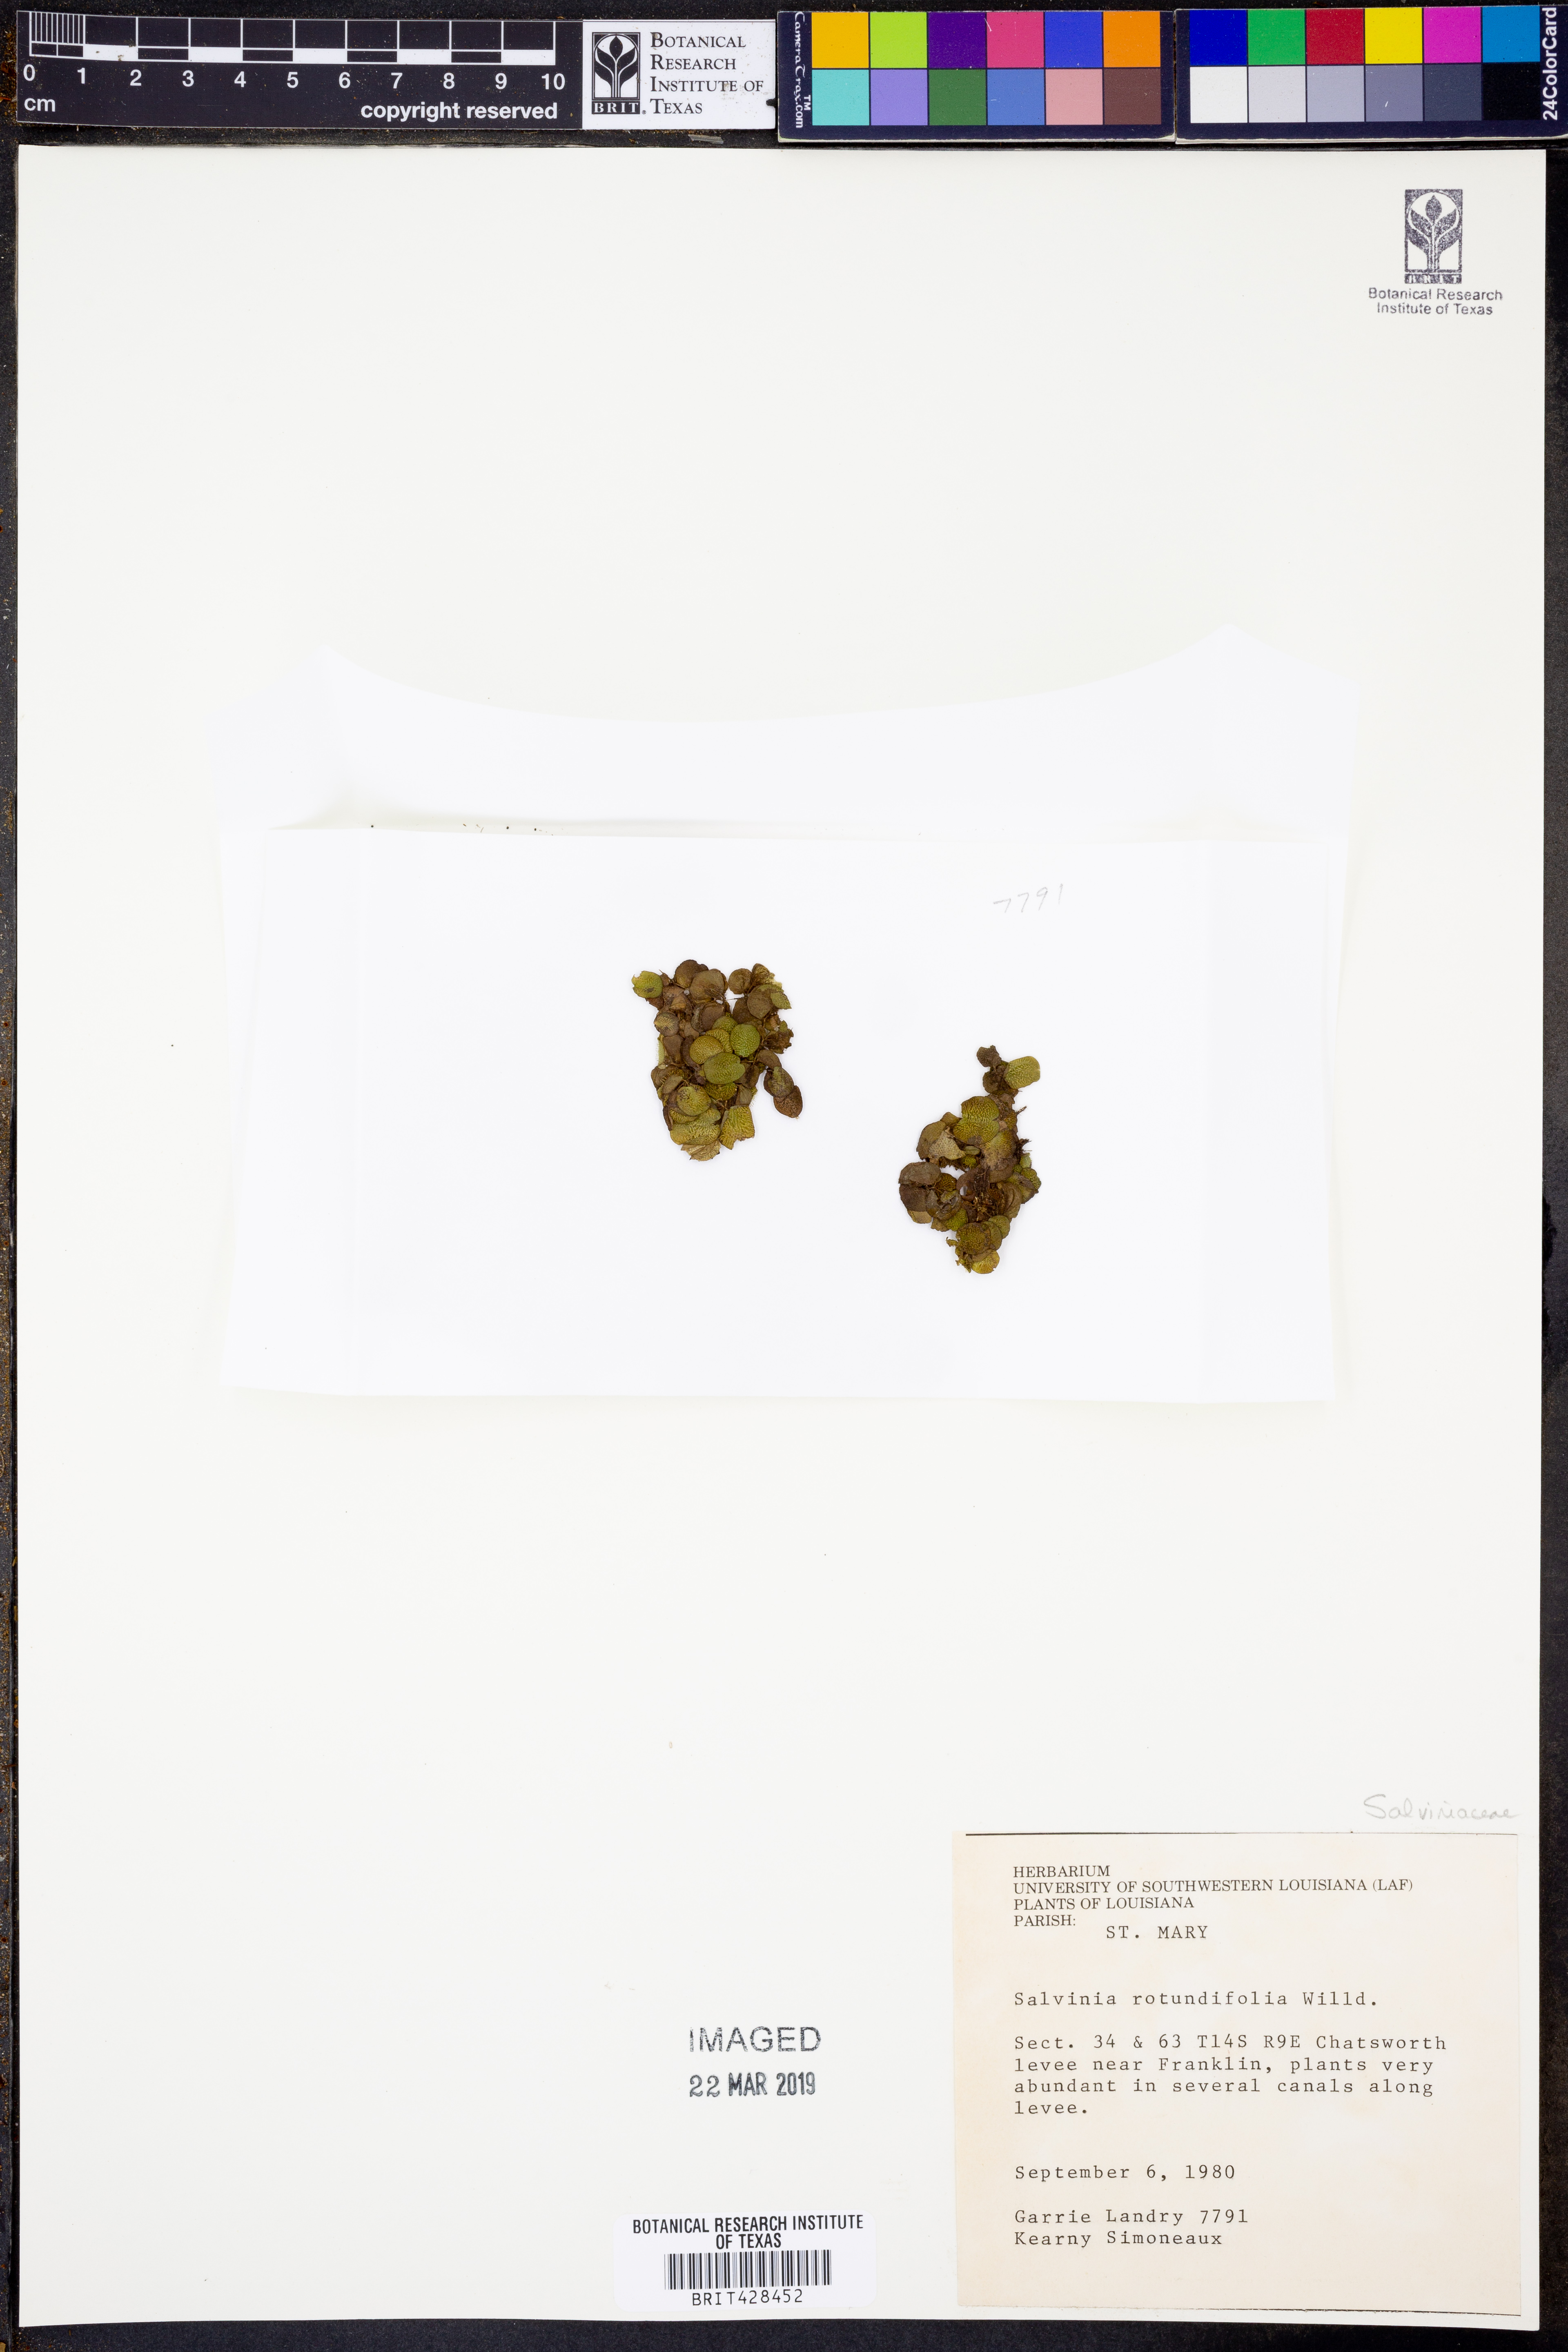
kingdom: Plantae
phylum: Tracheophyta
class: Polypodiopsida
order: Salviniales
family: Salviniaceae
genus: Salvinia
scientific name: Salvinia auriculata
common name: African payal
